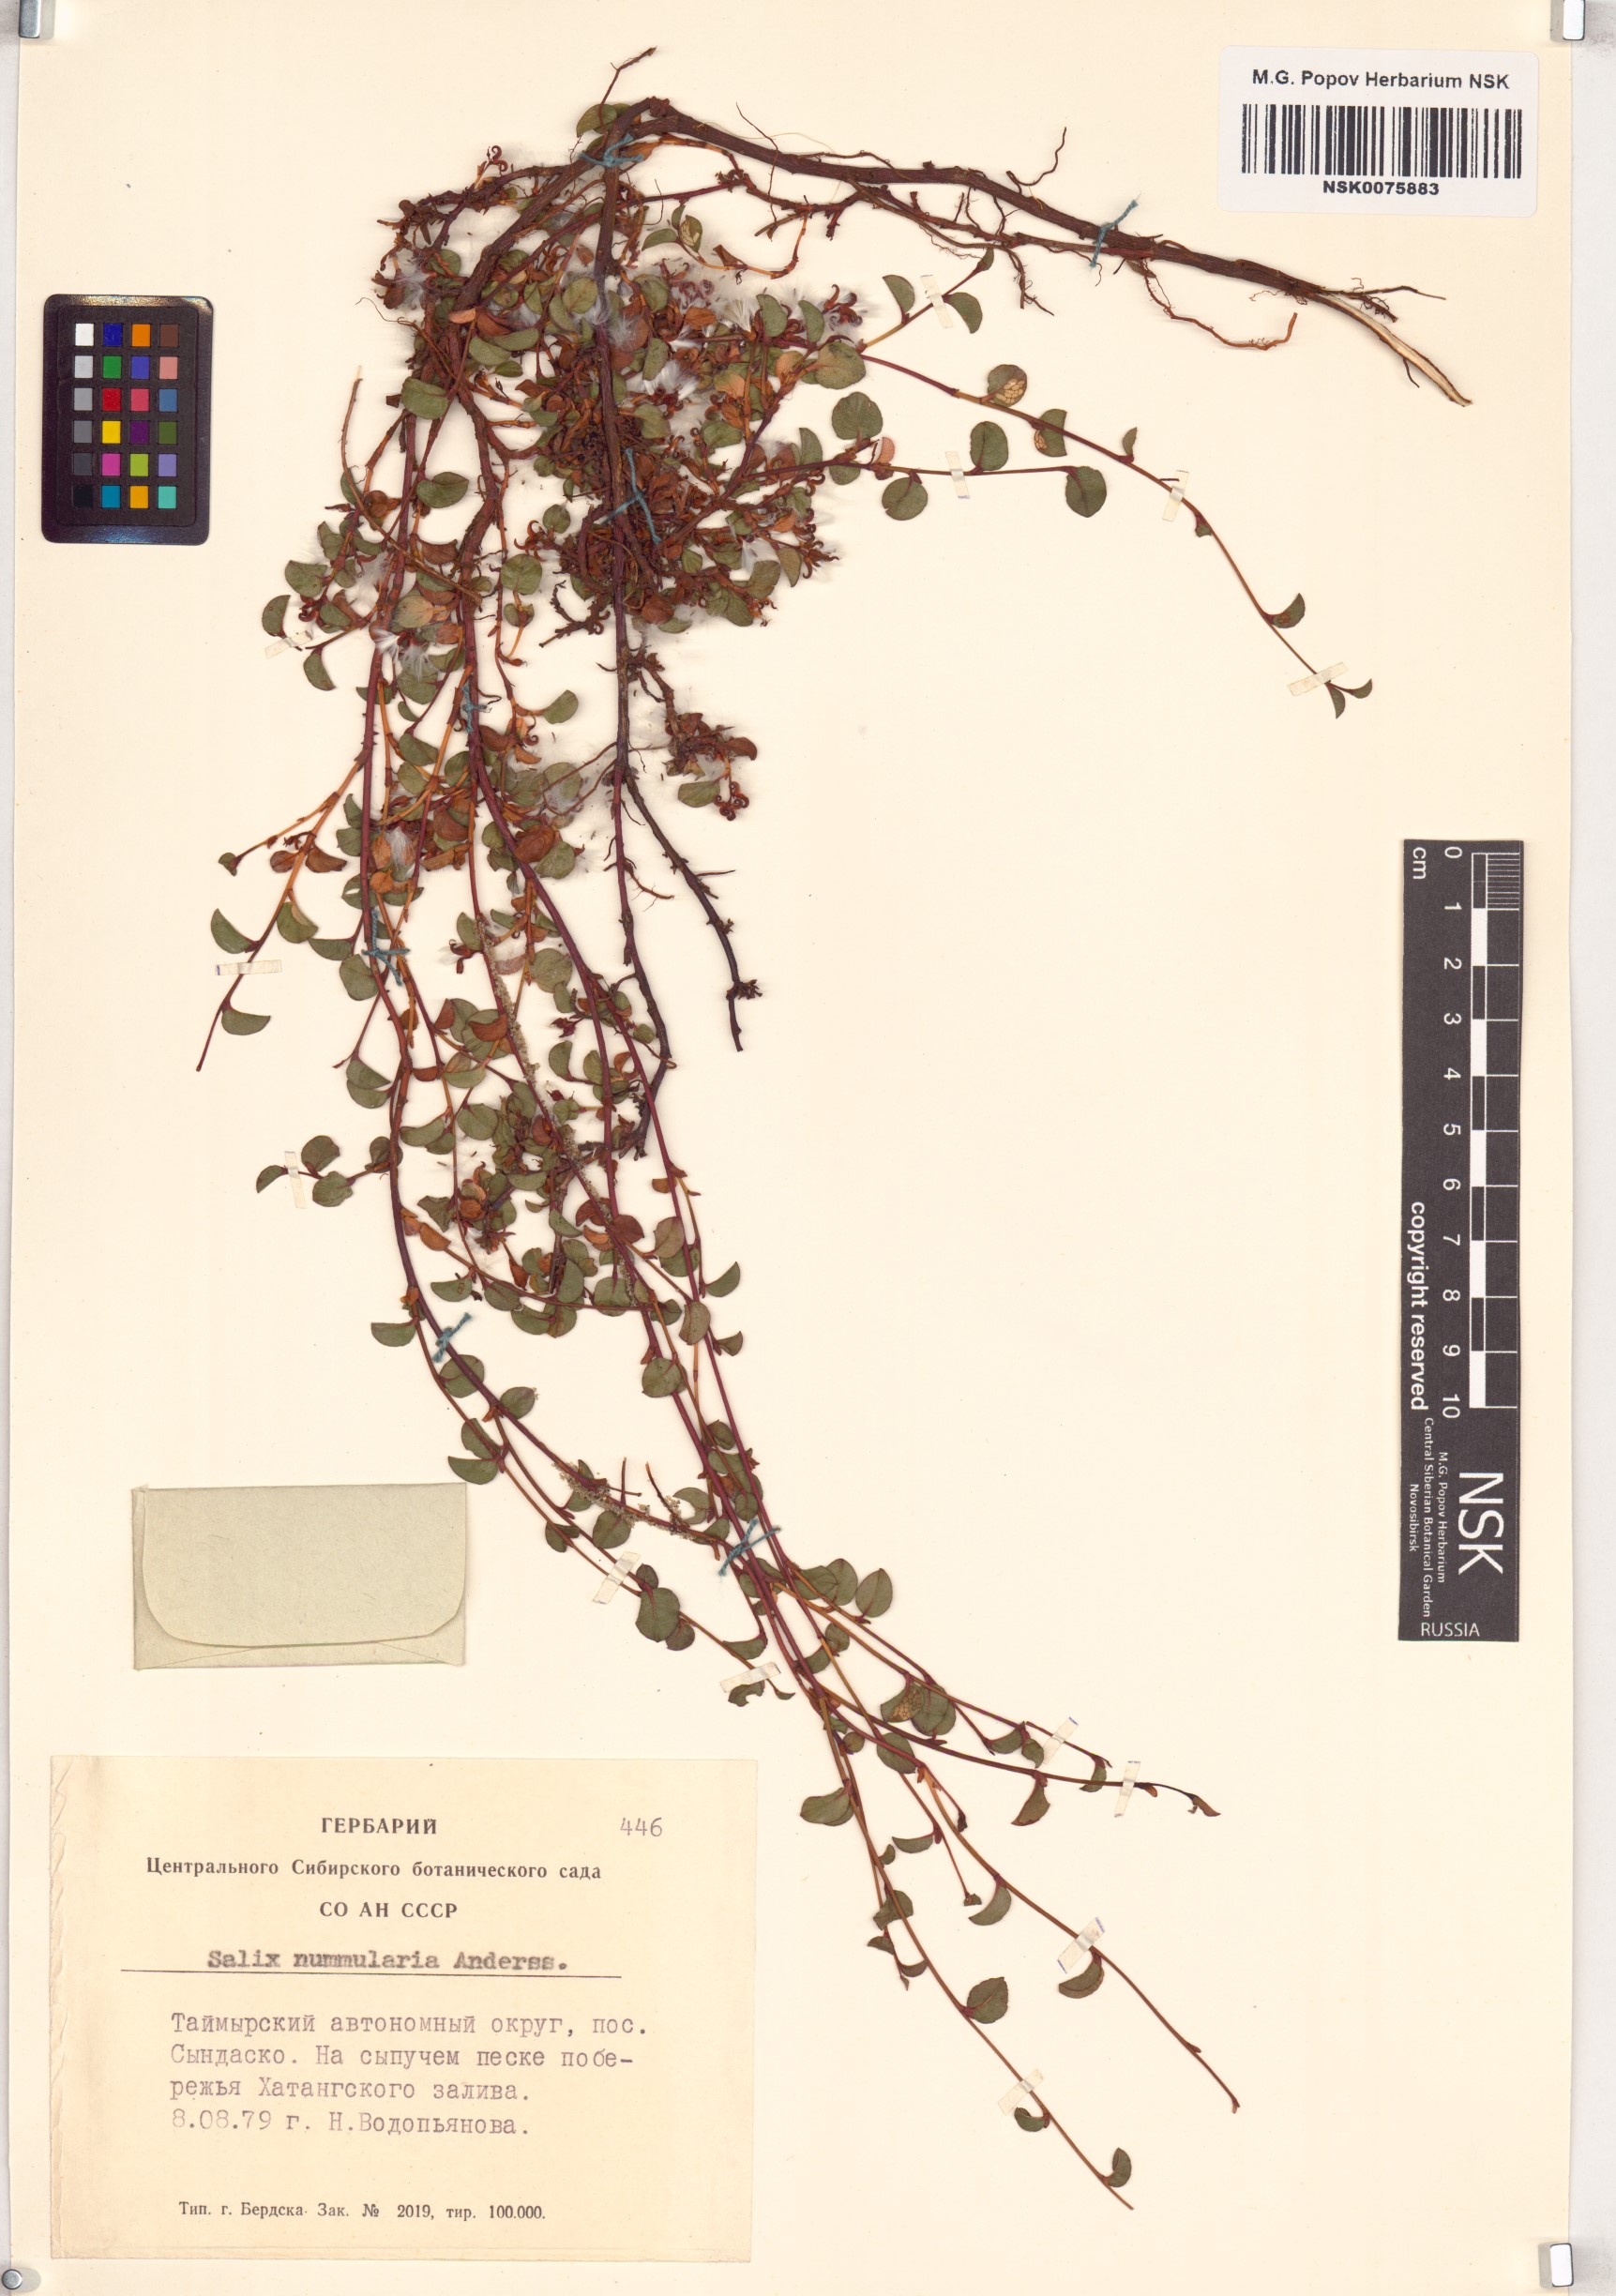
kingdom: Plantae
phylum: Tracheophyta
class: Magnoliopsida
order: Malpighiales
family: Salicaceae
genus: Salix
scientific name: Salix nummularia
